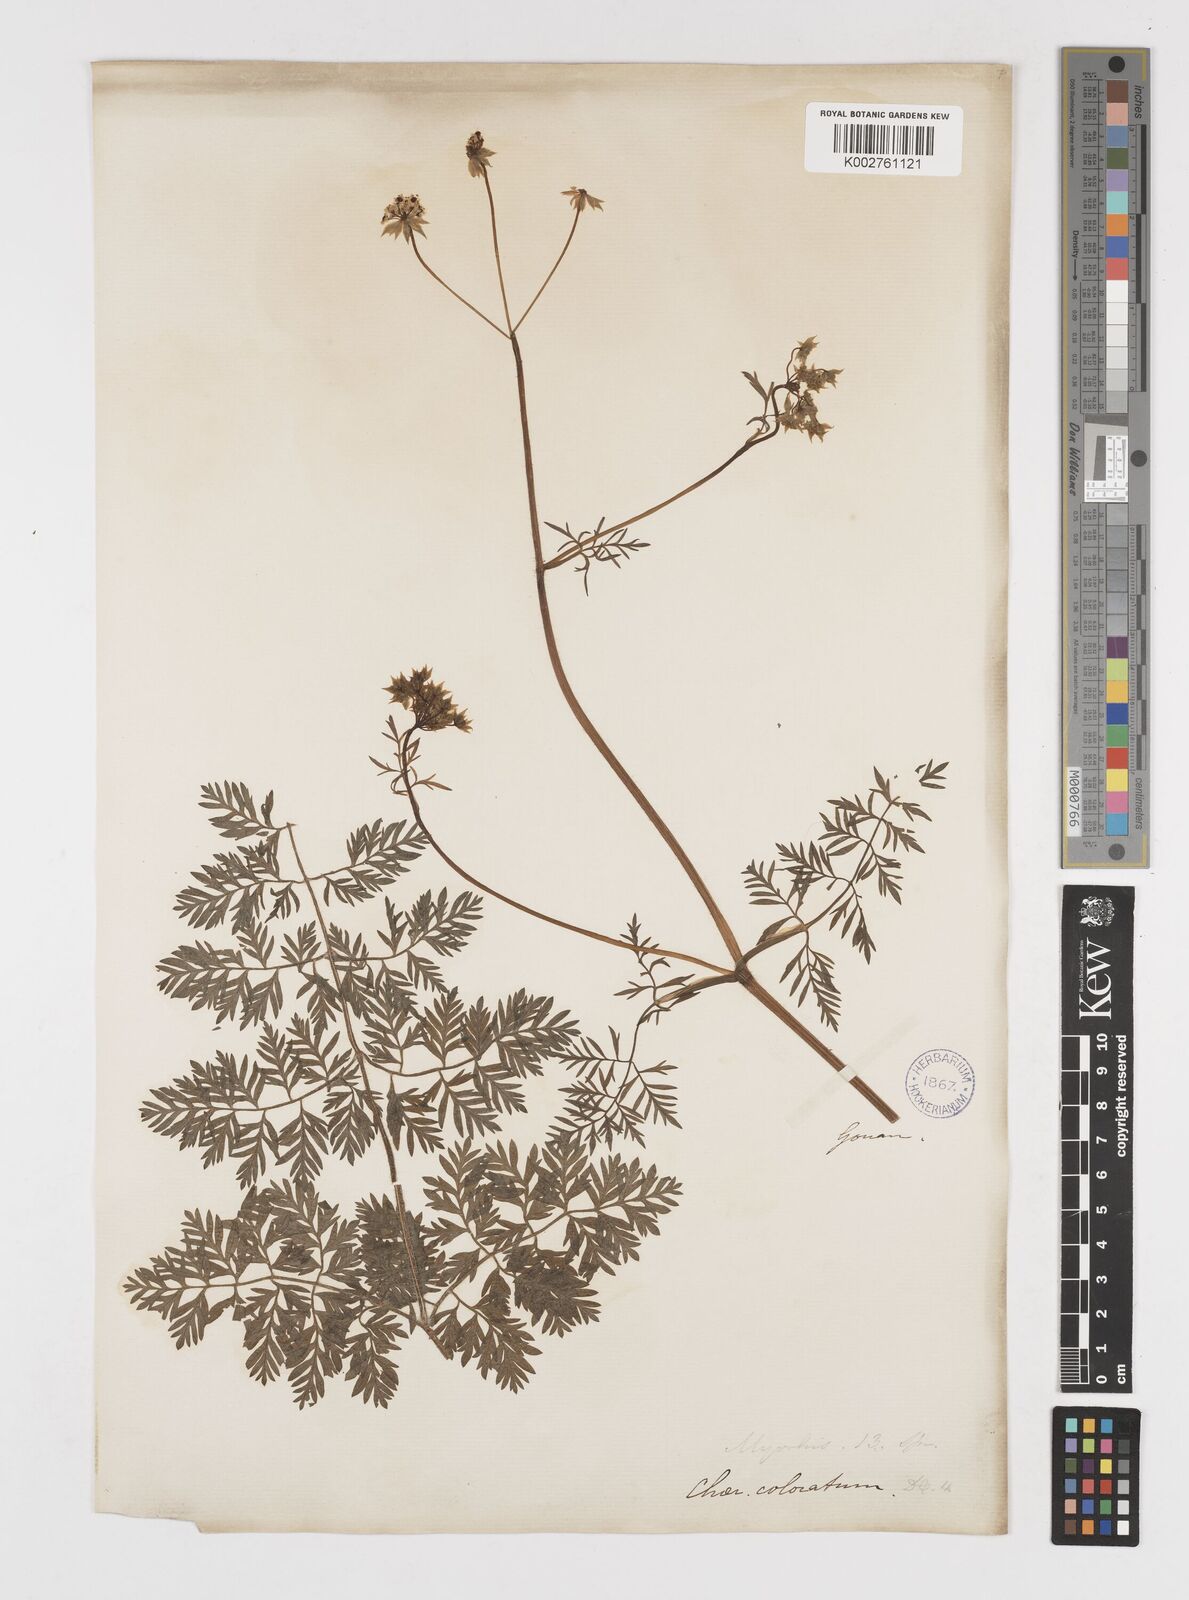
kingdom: Plantae
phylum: Tracheophyta
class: Magnoliopsida
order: Apiales
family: Apiaceae
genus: Chaerophyllum
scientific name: Chaerophyllum coloratum
